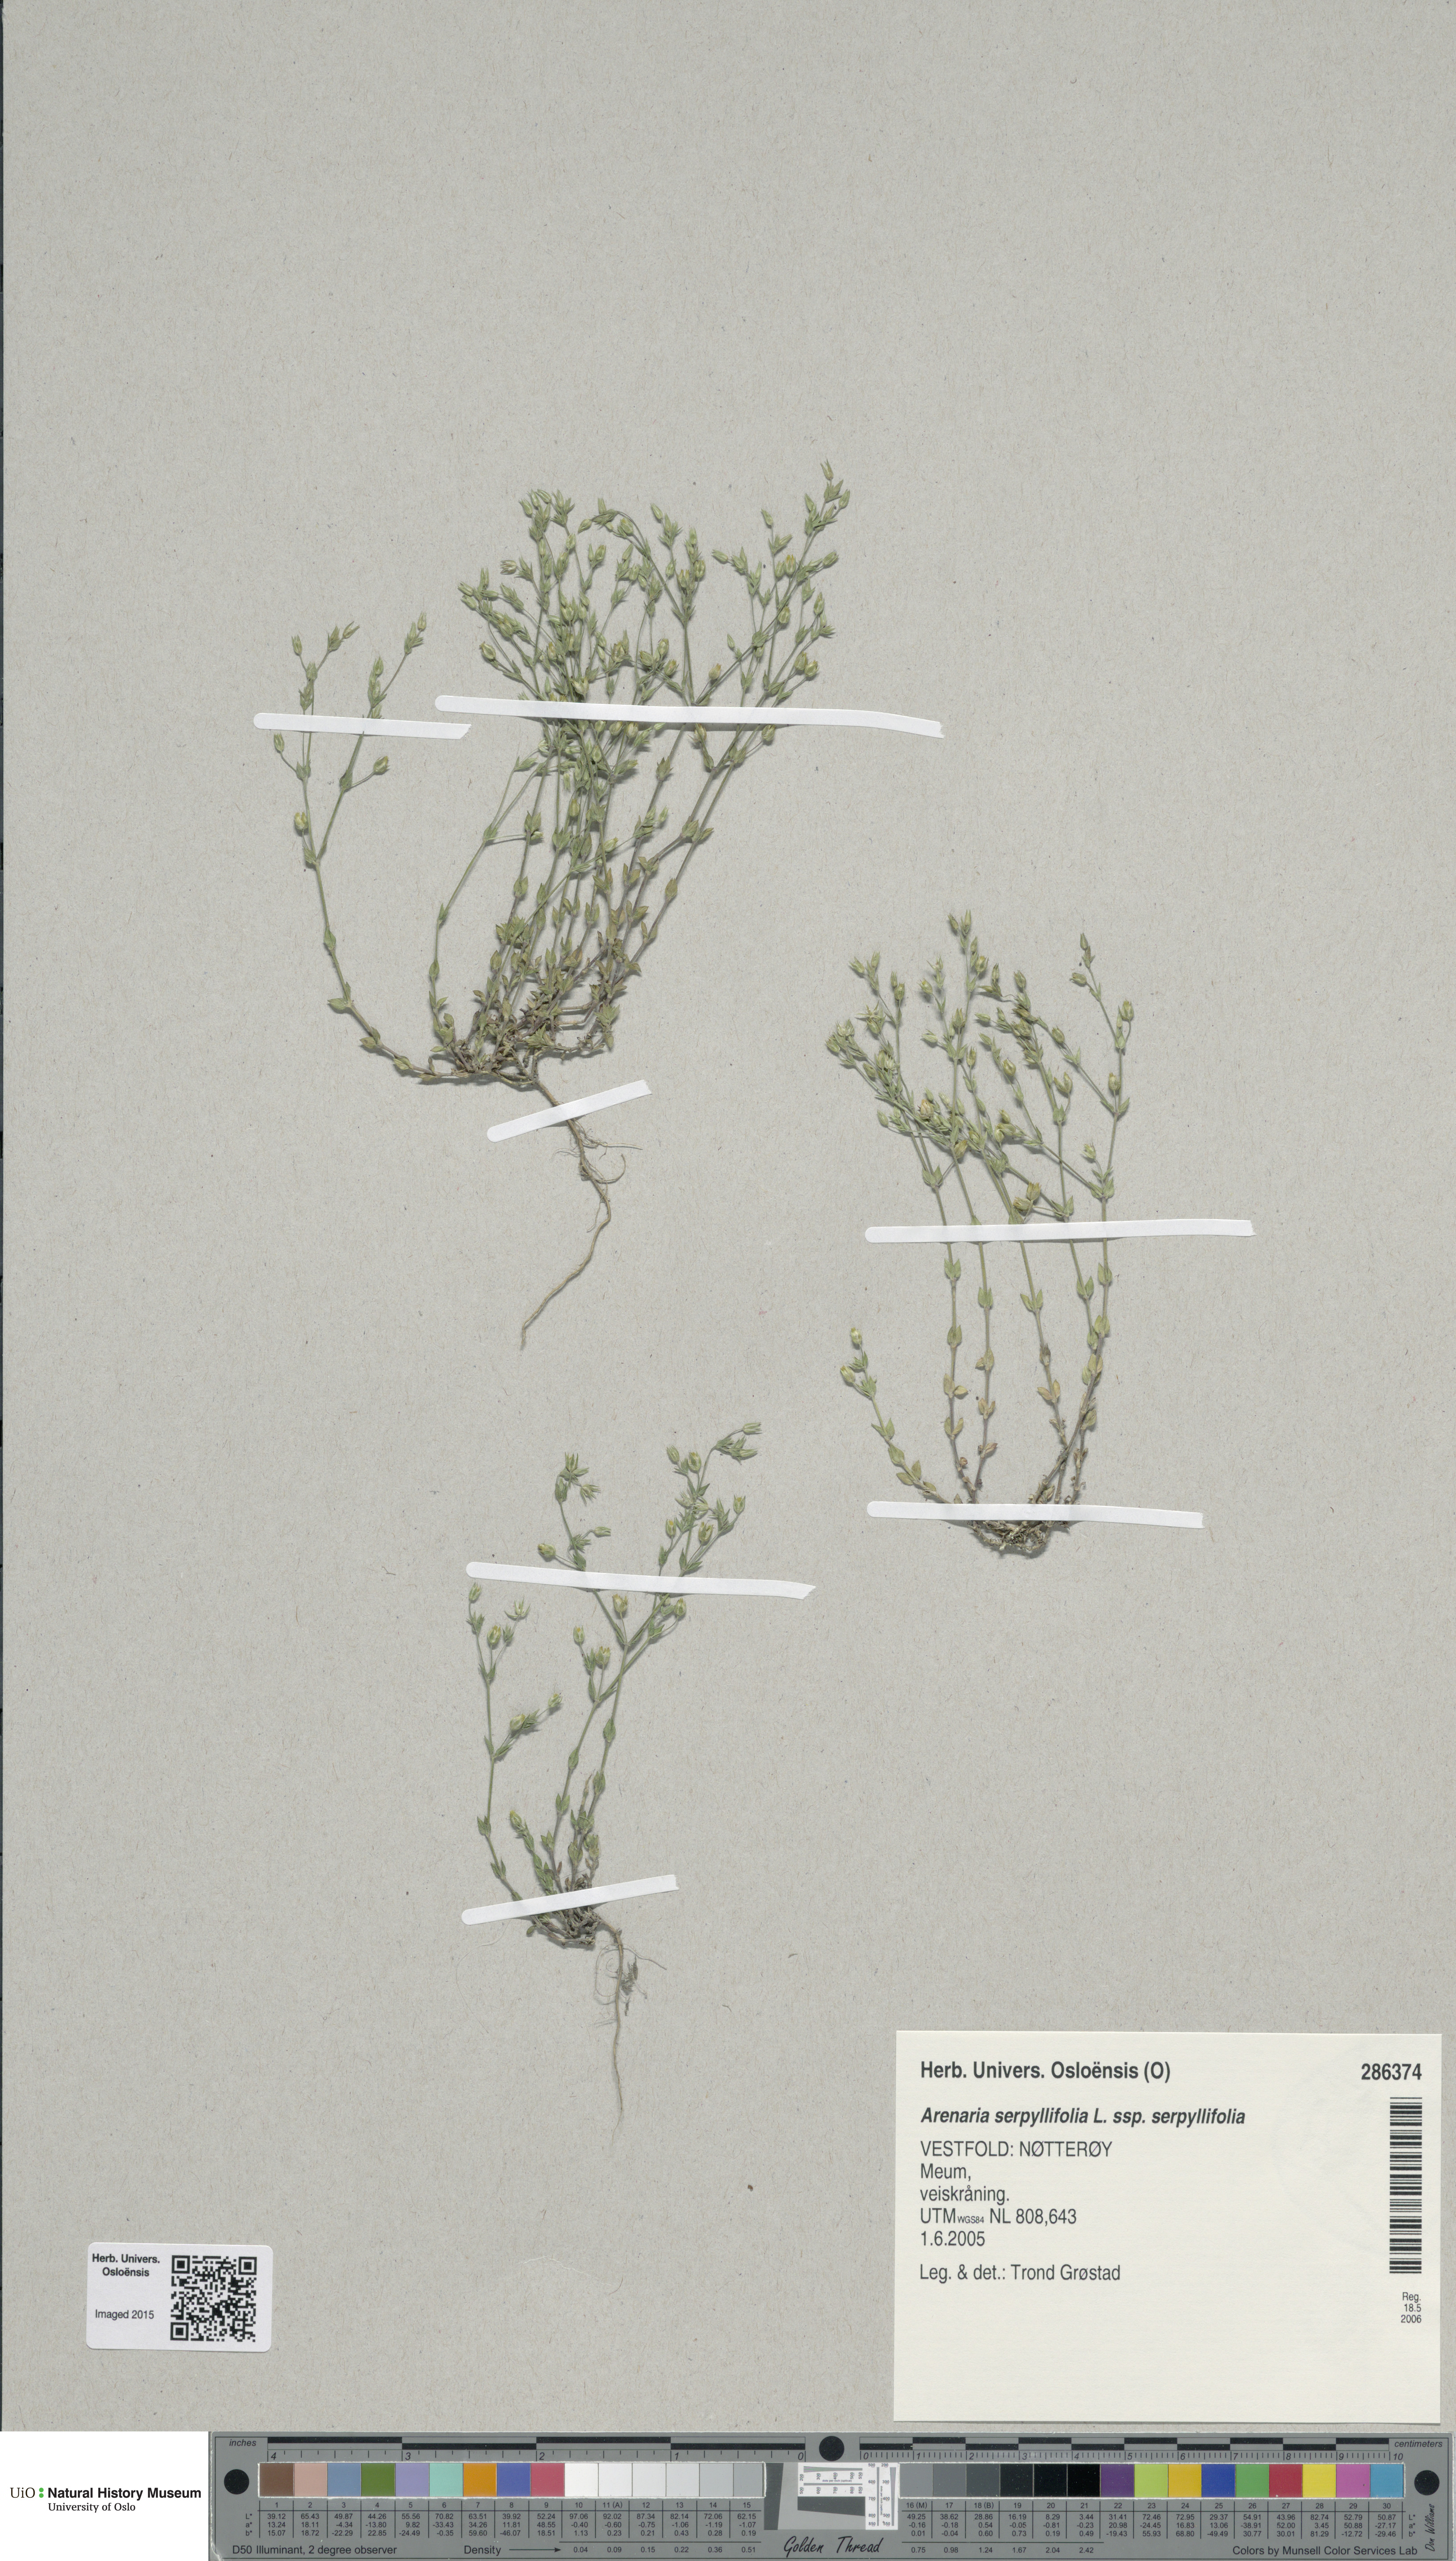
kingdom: Plantae
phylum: Tracheophyta
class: Magnoliopsida
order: Caryophyllales
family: Caryophyllaceae
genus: Arenaria
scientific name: Arenaria serpyllifolia
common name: Thyme-leaved sandwort
